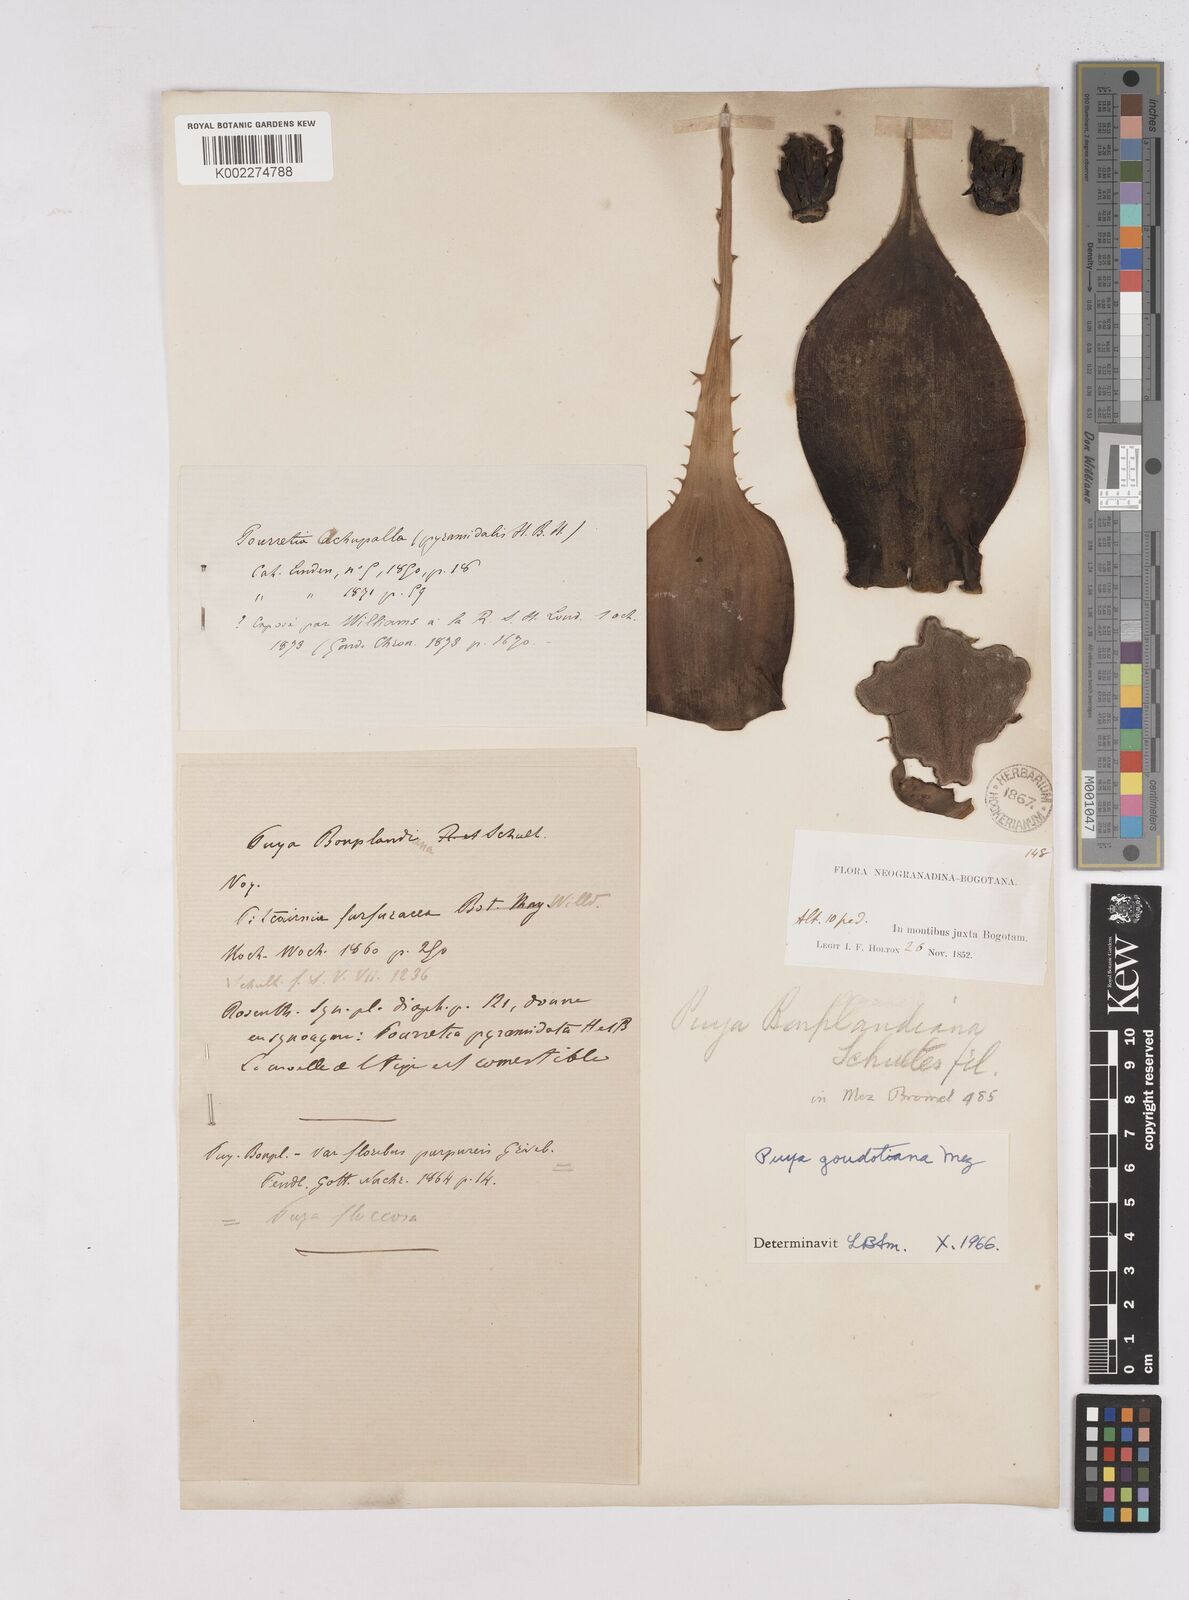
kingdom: Plantae
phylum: Tracheophyta
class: Liliopsida
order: Poales
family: Bromeliaceae
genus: Puya
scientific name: Puya goudotiana
